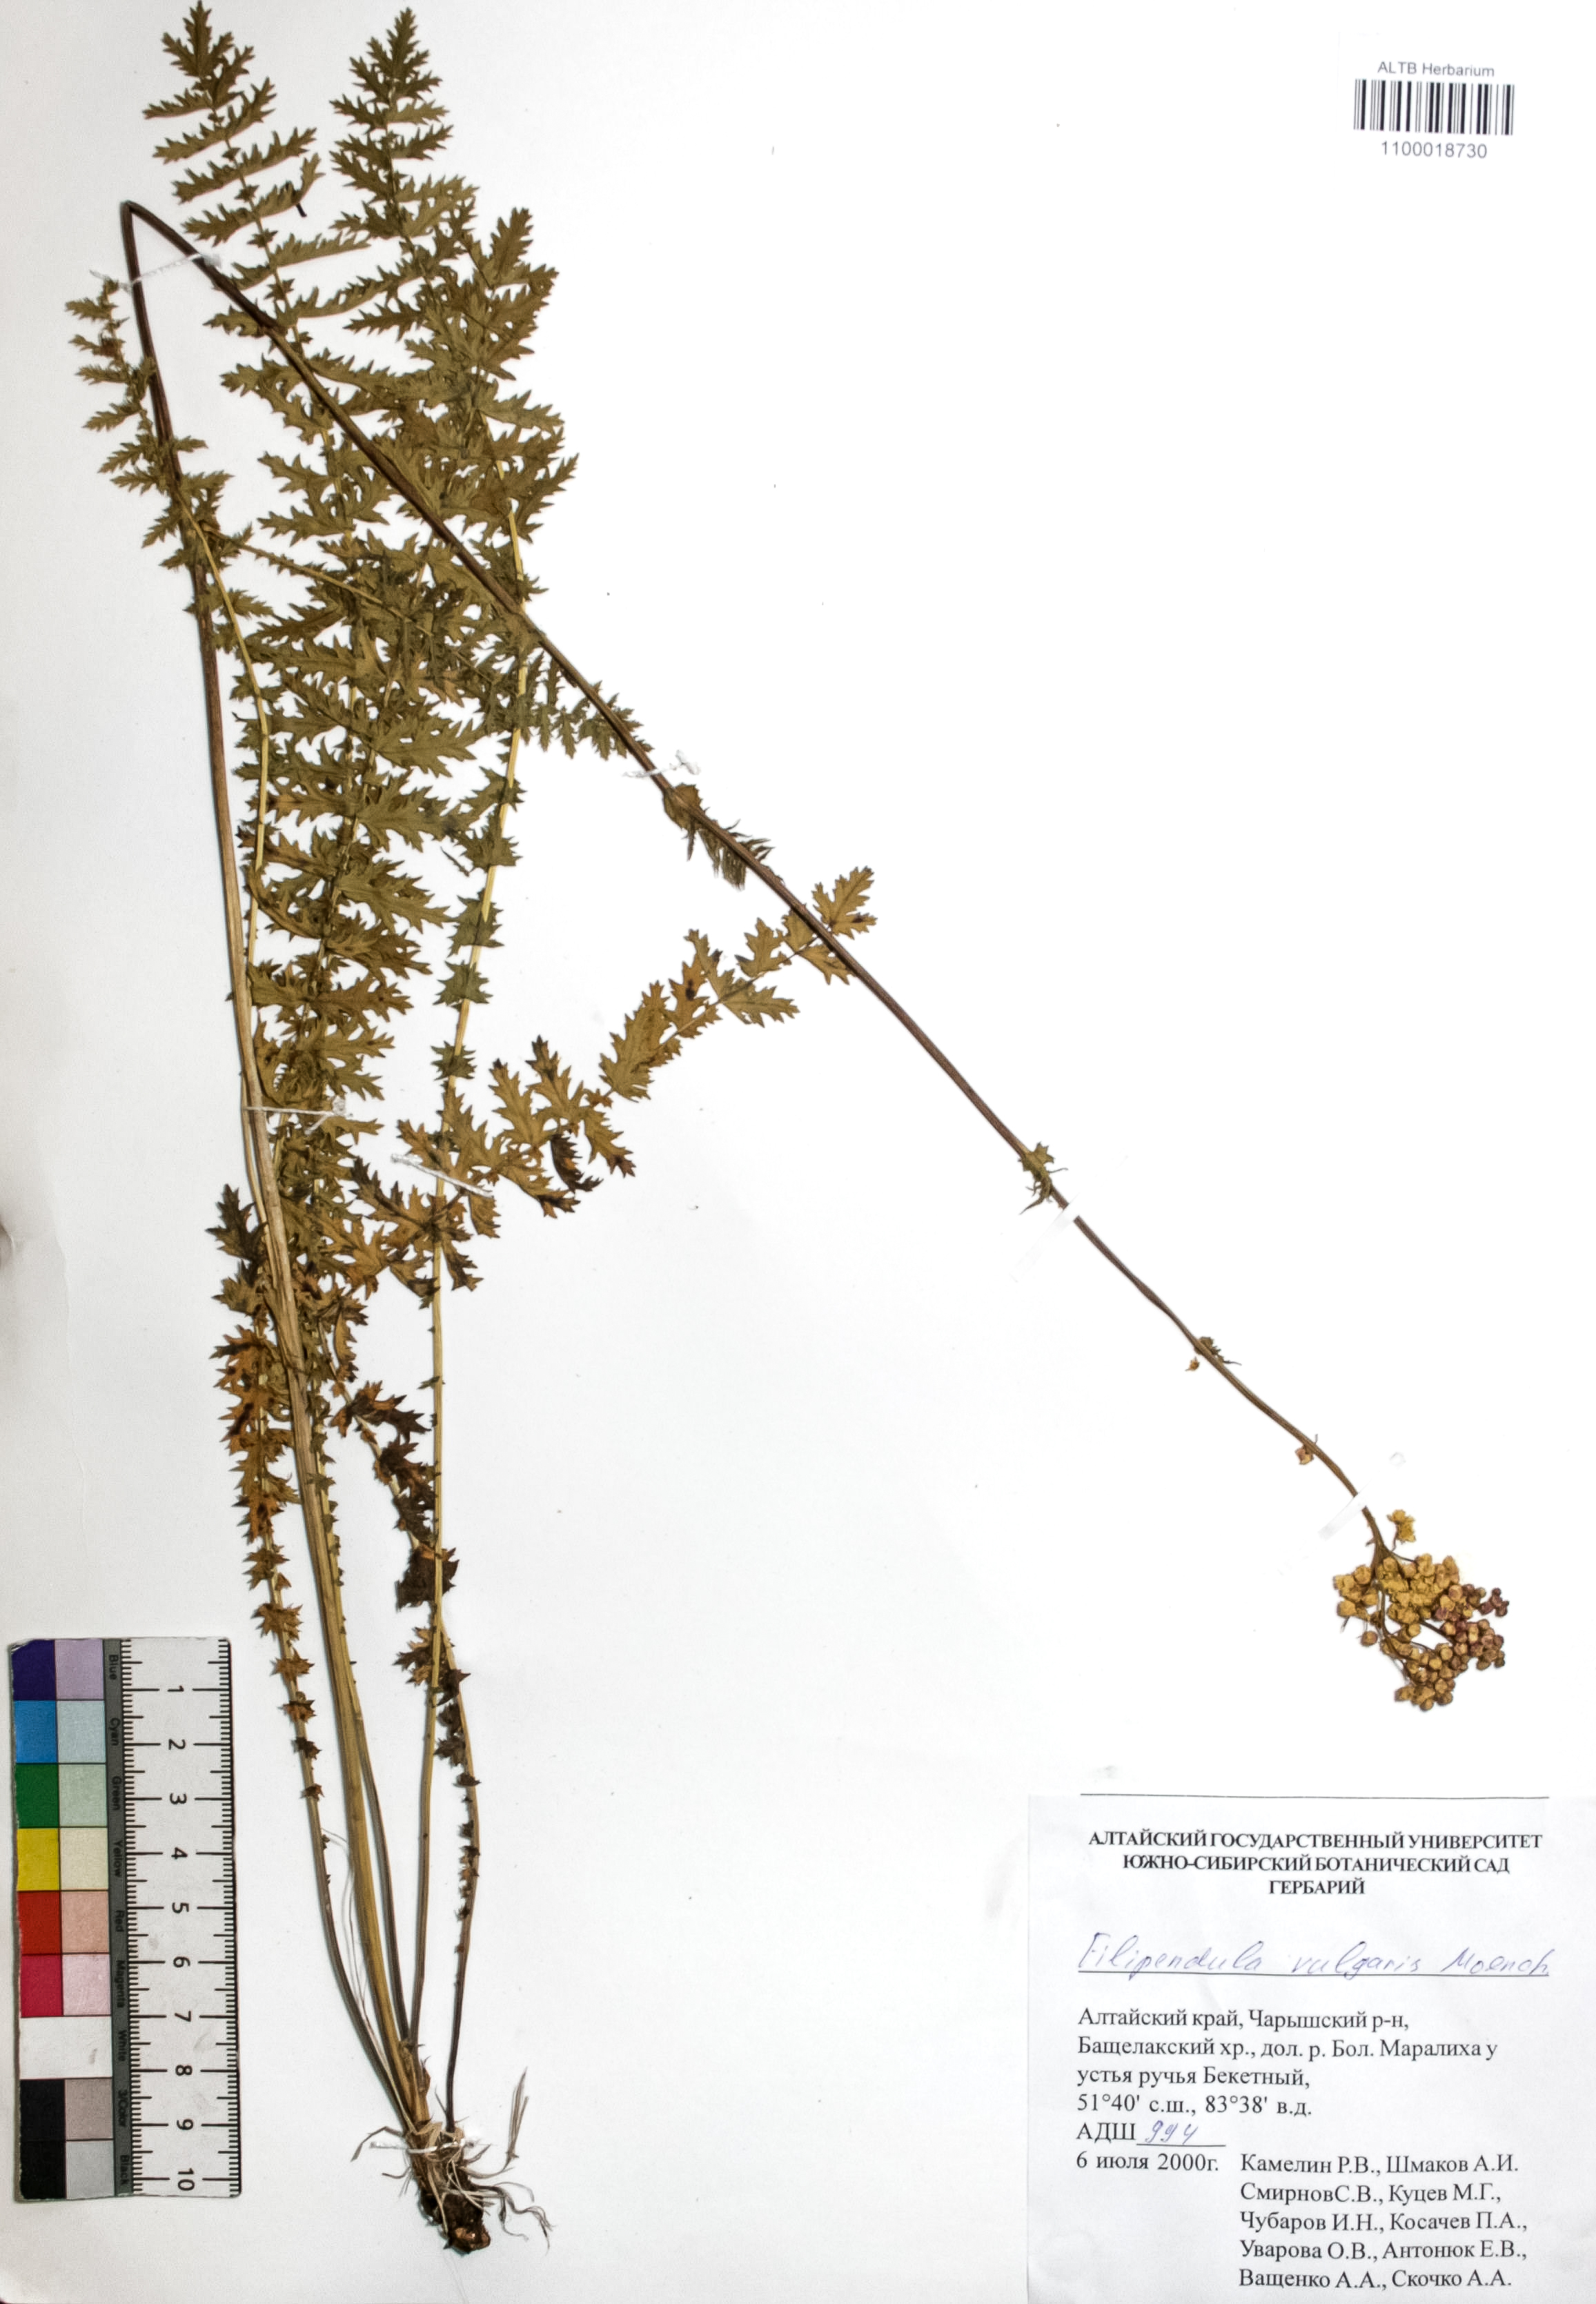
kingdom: Plantae
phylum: Tracheophyta
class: Magnoliopsida
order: Rosales
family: Rosaceae
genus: Filipendula
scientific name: Filipendula vulgaris
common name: Dropwort
